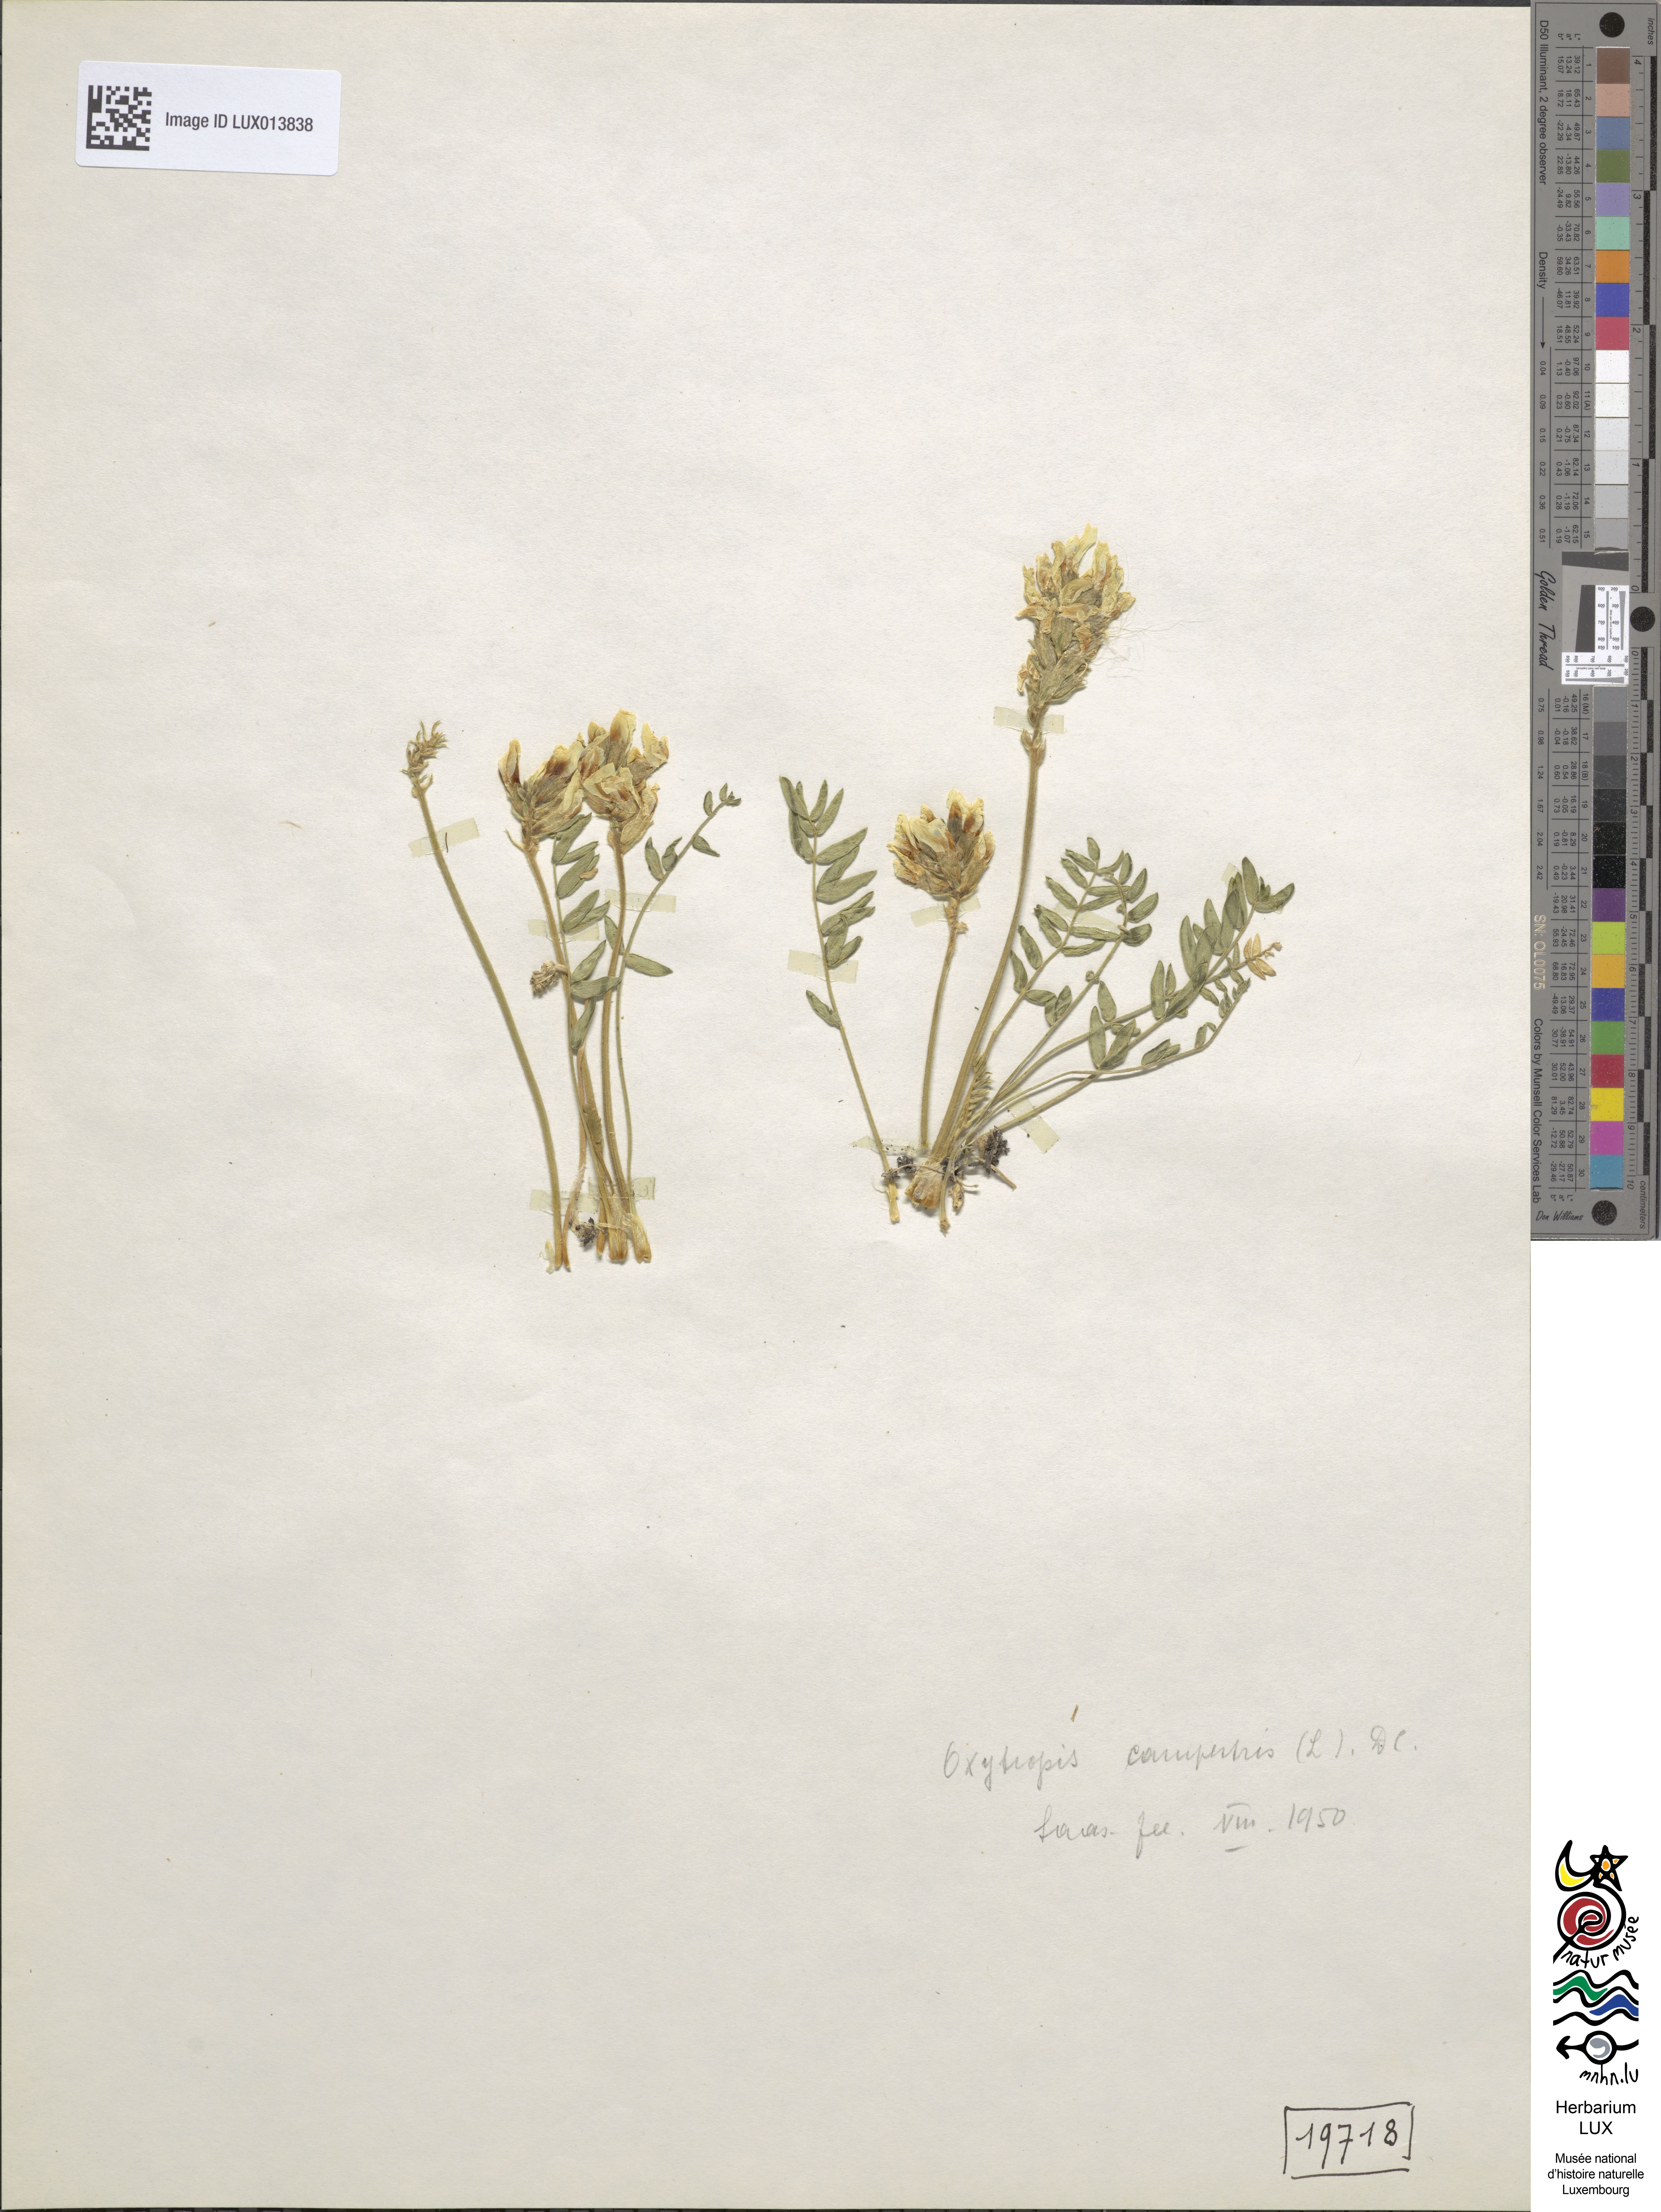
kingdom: Plantae
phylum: Tracheophyta
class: Magnoliopsida
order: Fabales
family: Fabaceae
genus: Oxytropis
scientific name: Oxytropis campestris
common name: Field locoweed
